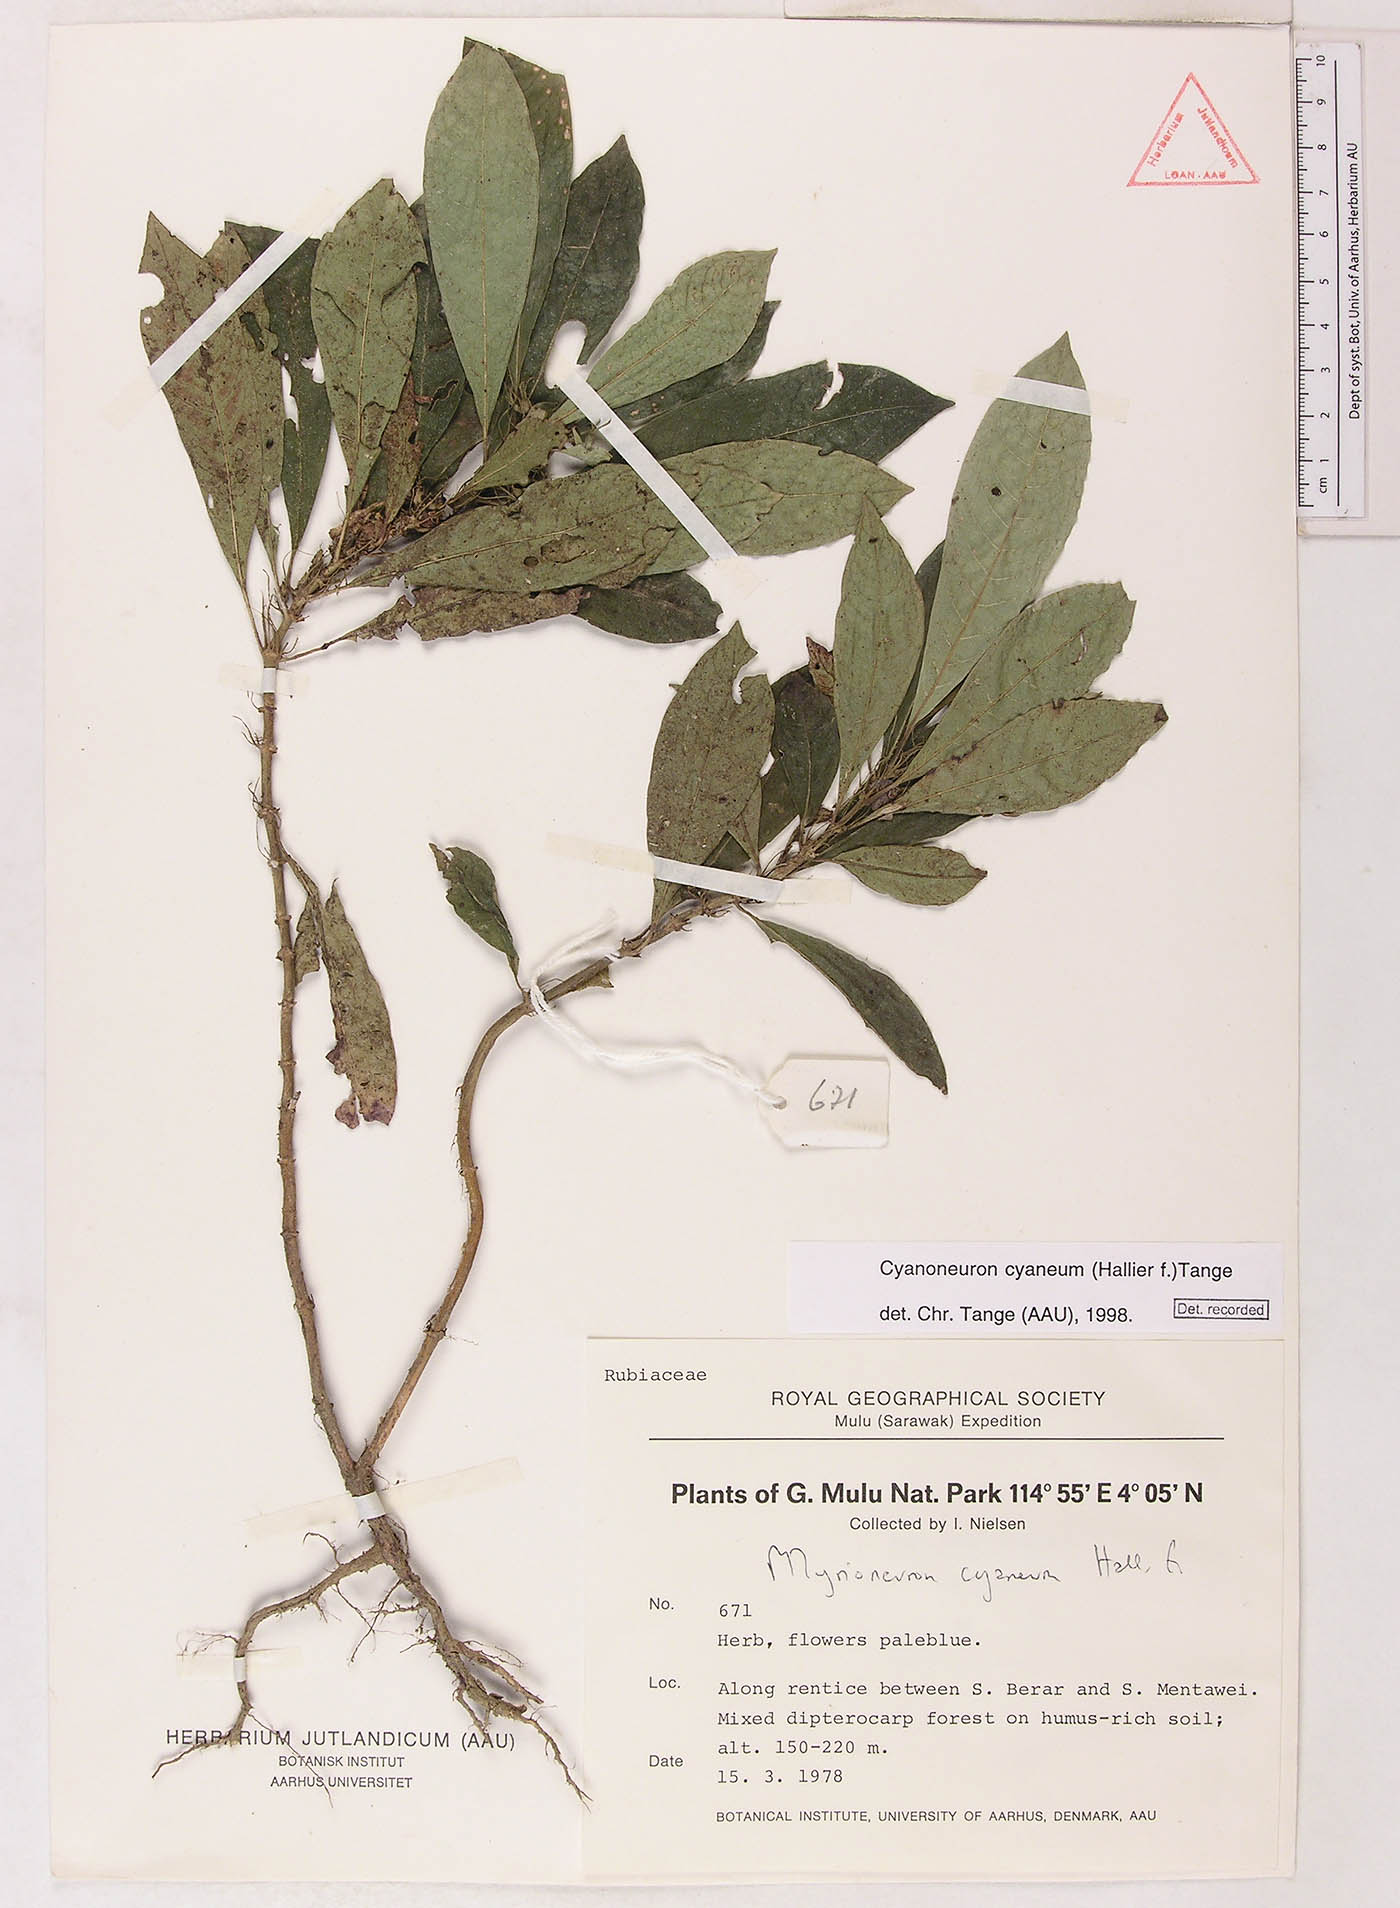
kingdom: Plantae
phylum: Tracheophyta
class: Magnoliopsida
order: Gentianales
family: Rubiaceae
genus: Cyanoneuron
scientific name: Cyanoneuron cyaneum
